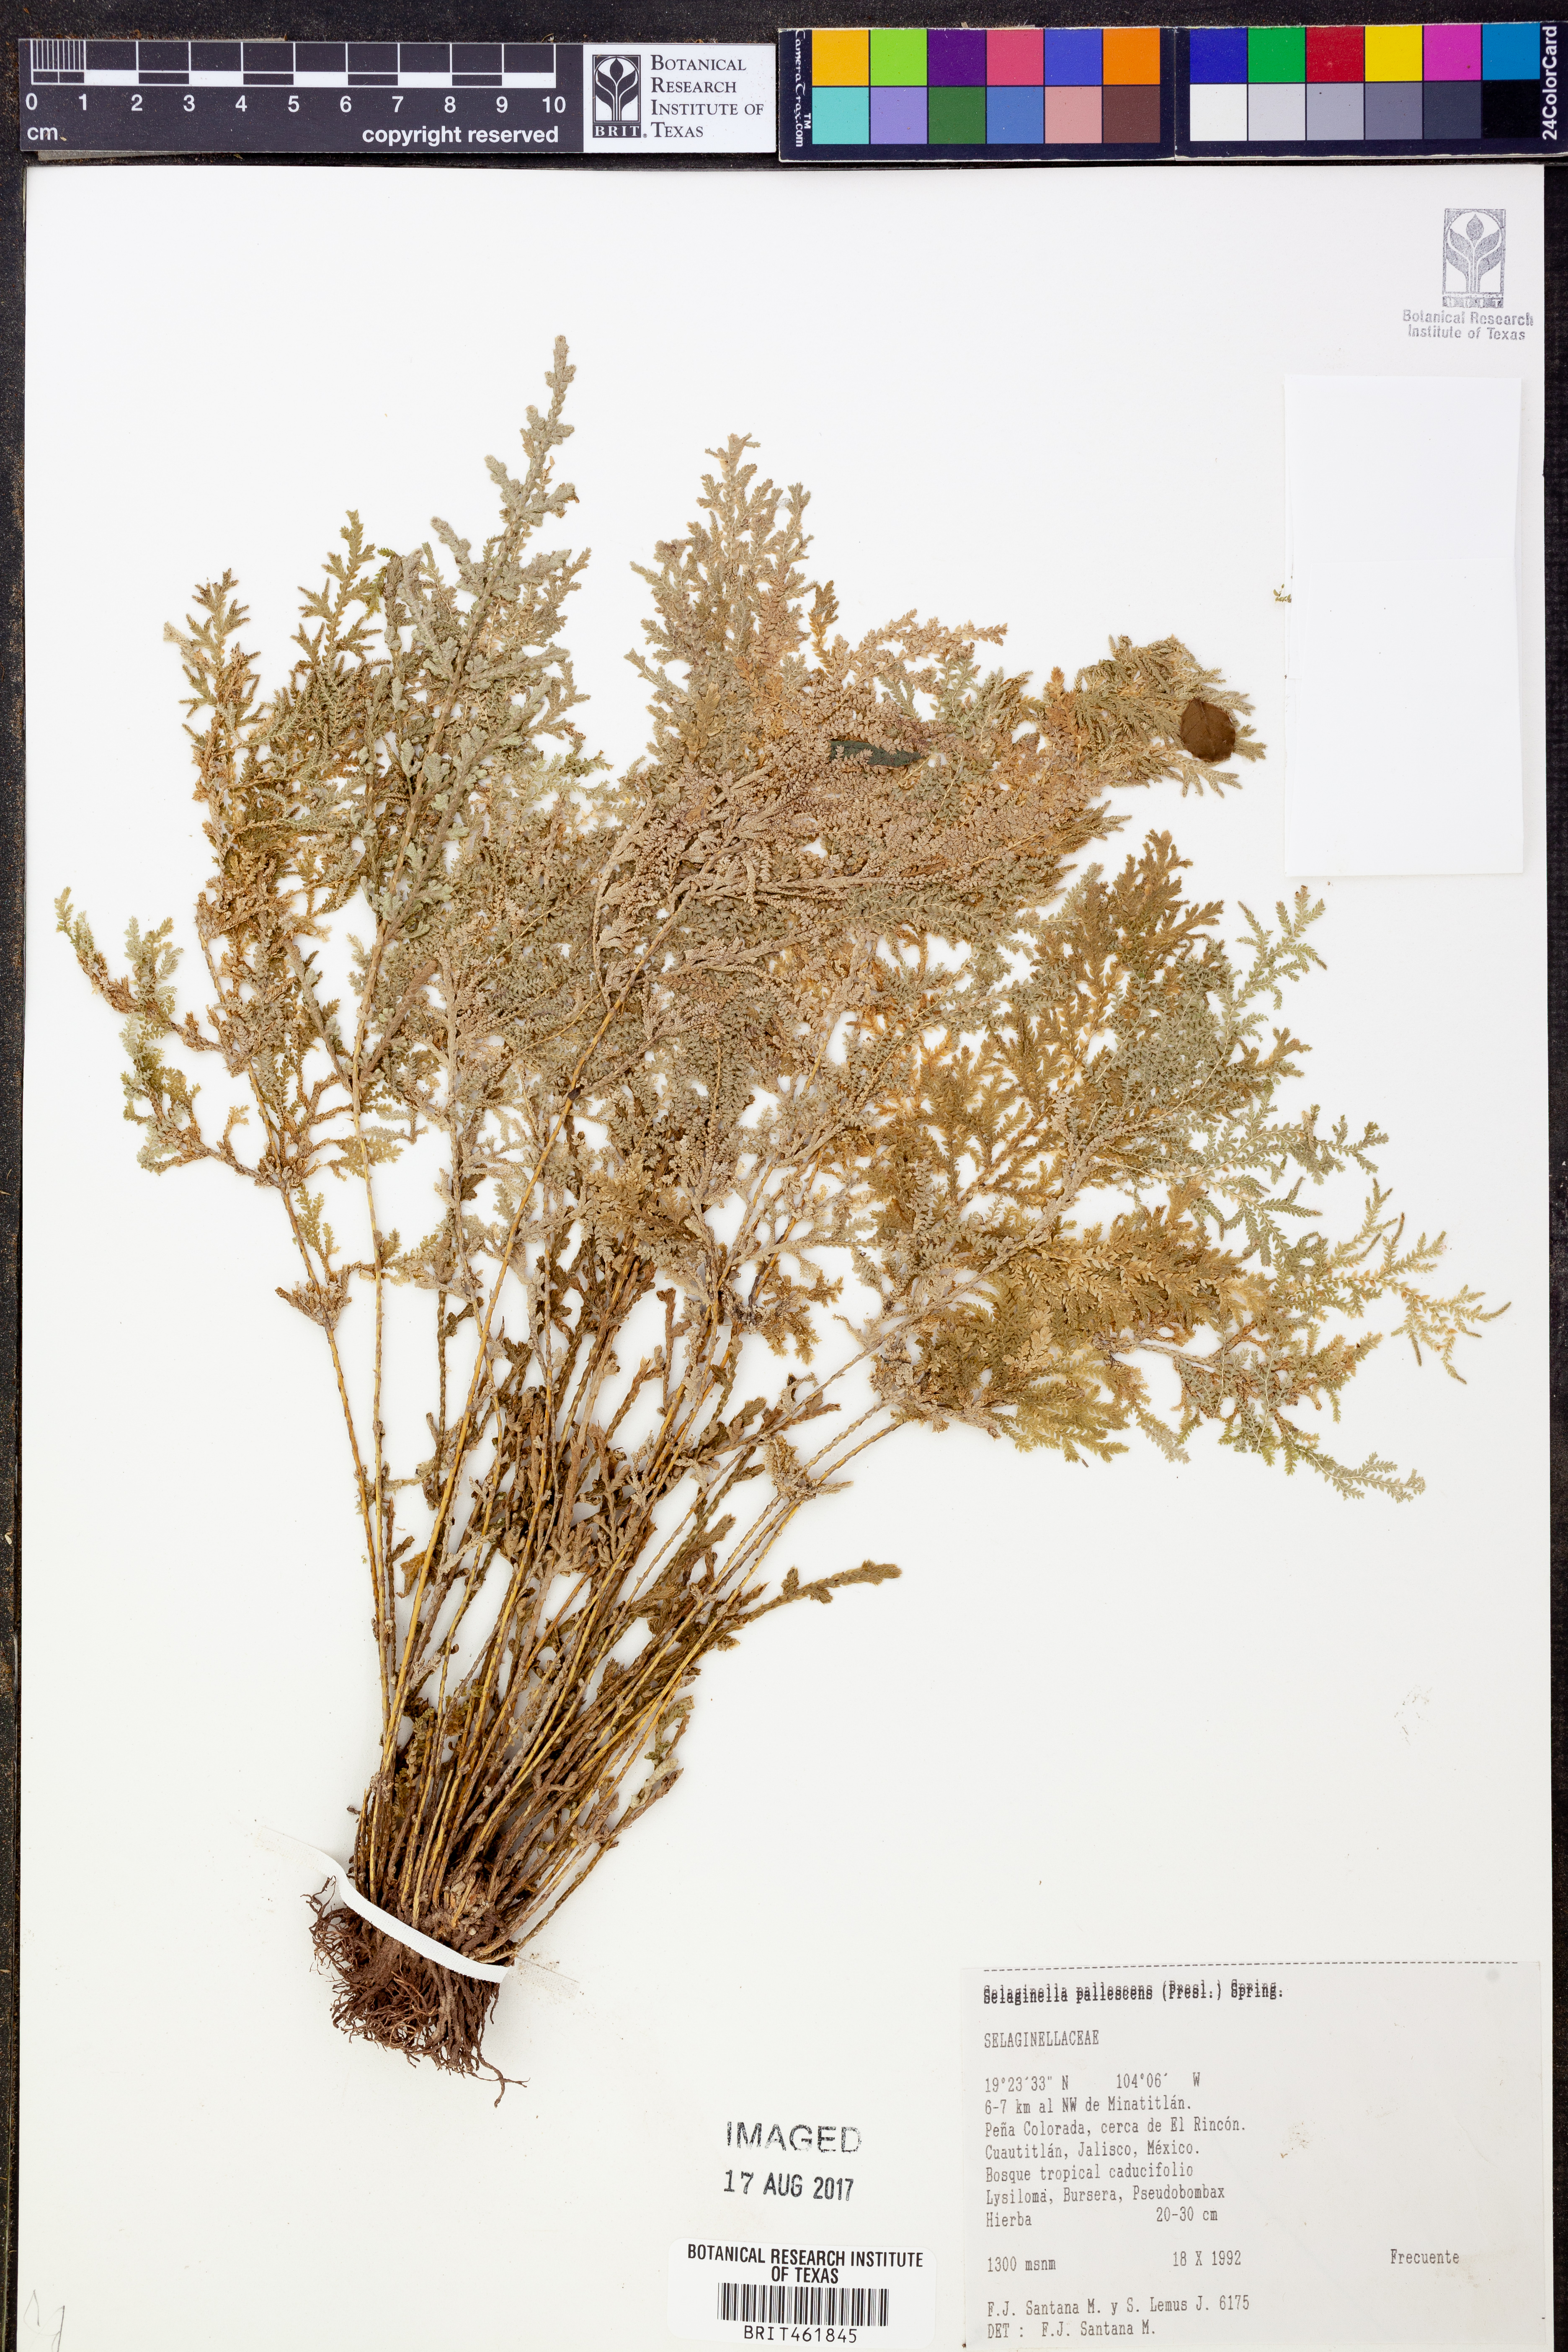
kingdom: Plantae
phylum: Tracheophyta
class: Lycopodiopsida
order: Selaginellales
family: Selaginellaceae
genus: Selaginella
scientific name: Selaginella pallescens
